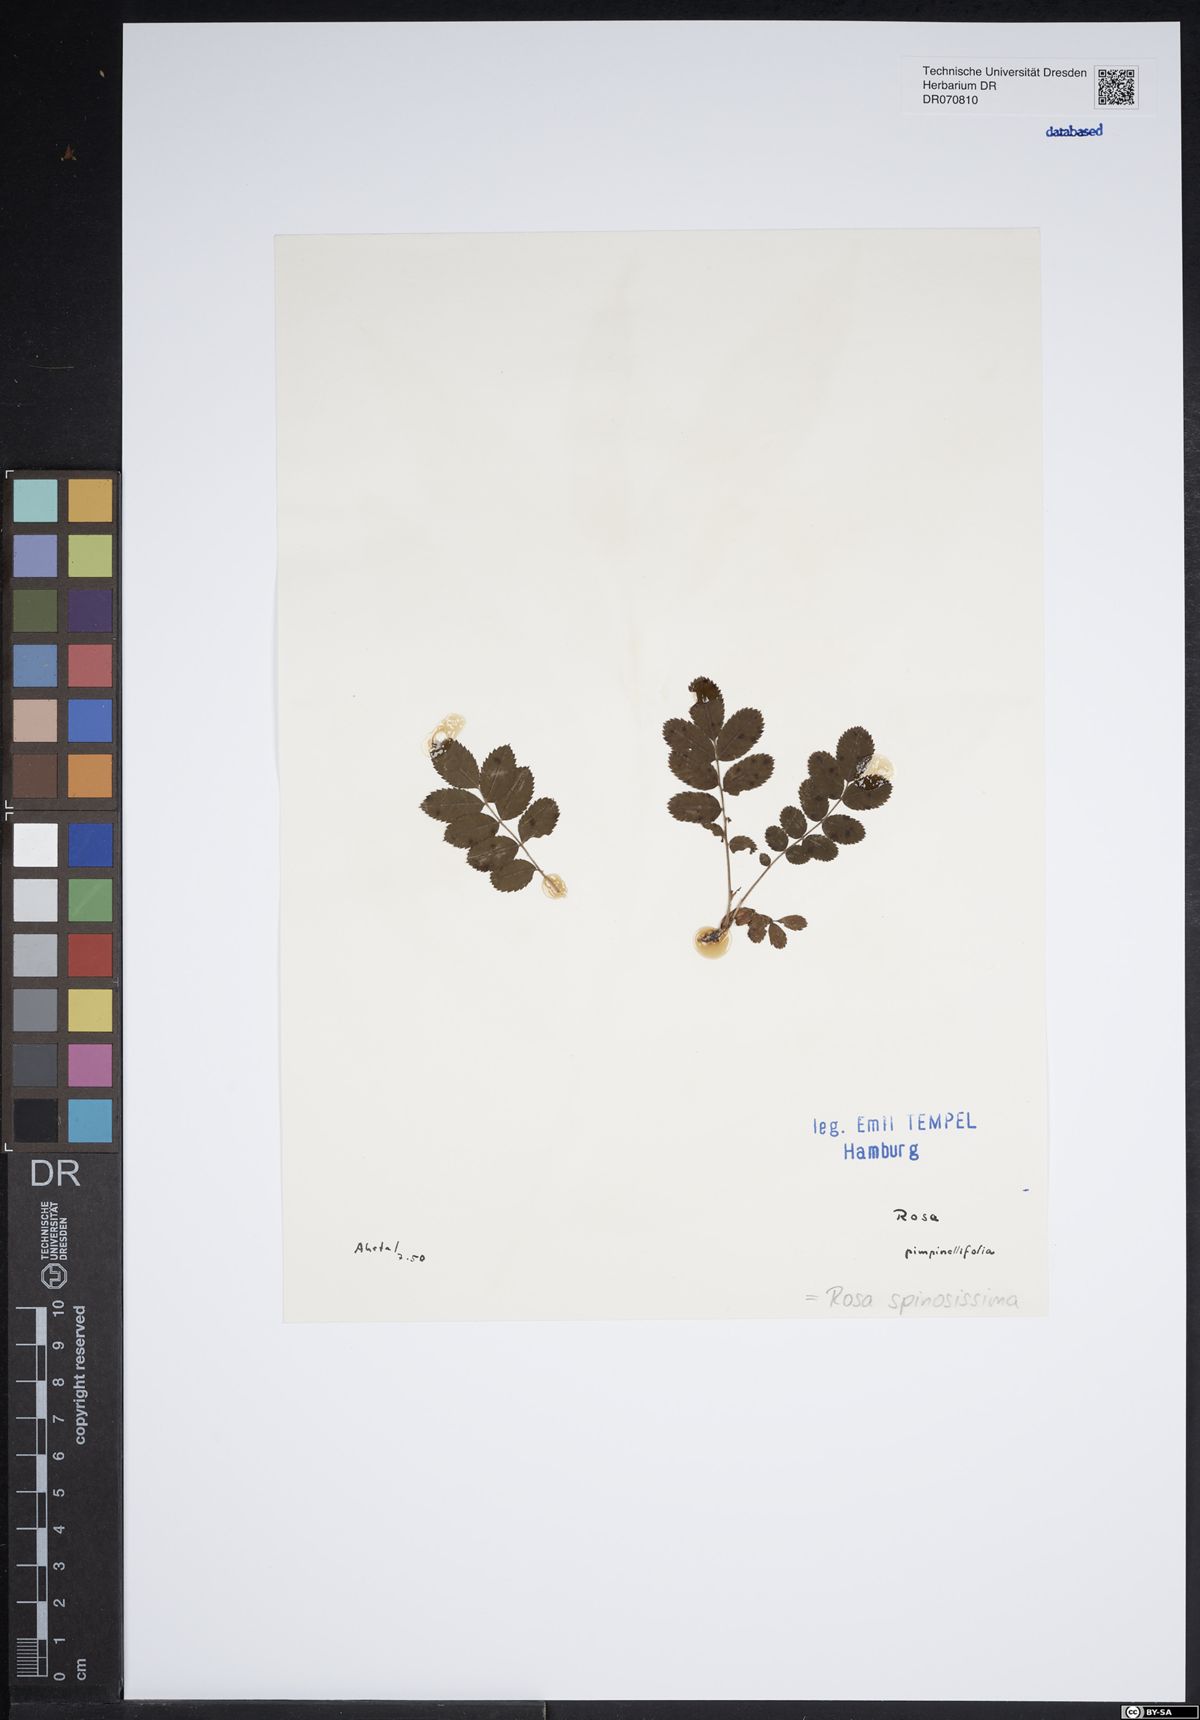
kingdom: Plantae
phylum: Tracheophyta
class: Magnoliopsida
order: Rosales
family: Rosaceae
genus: Rosa
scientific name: Rosa spinosissima
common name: Burnet rose
